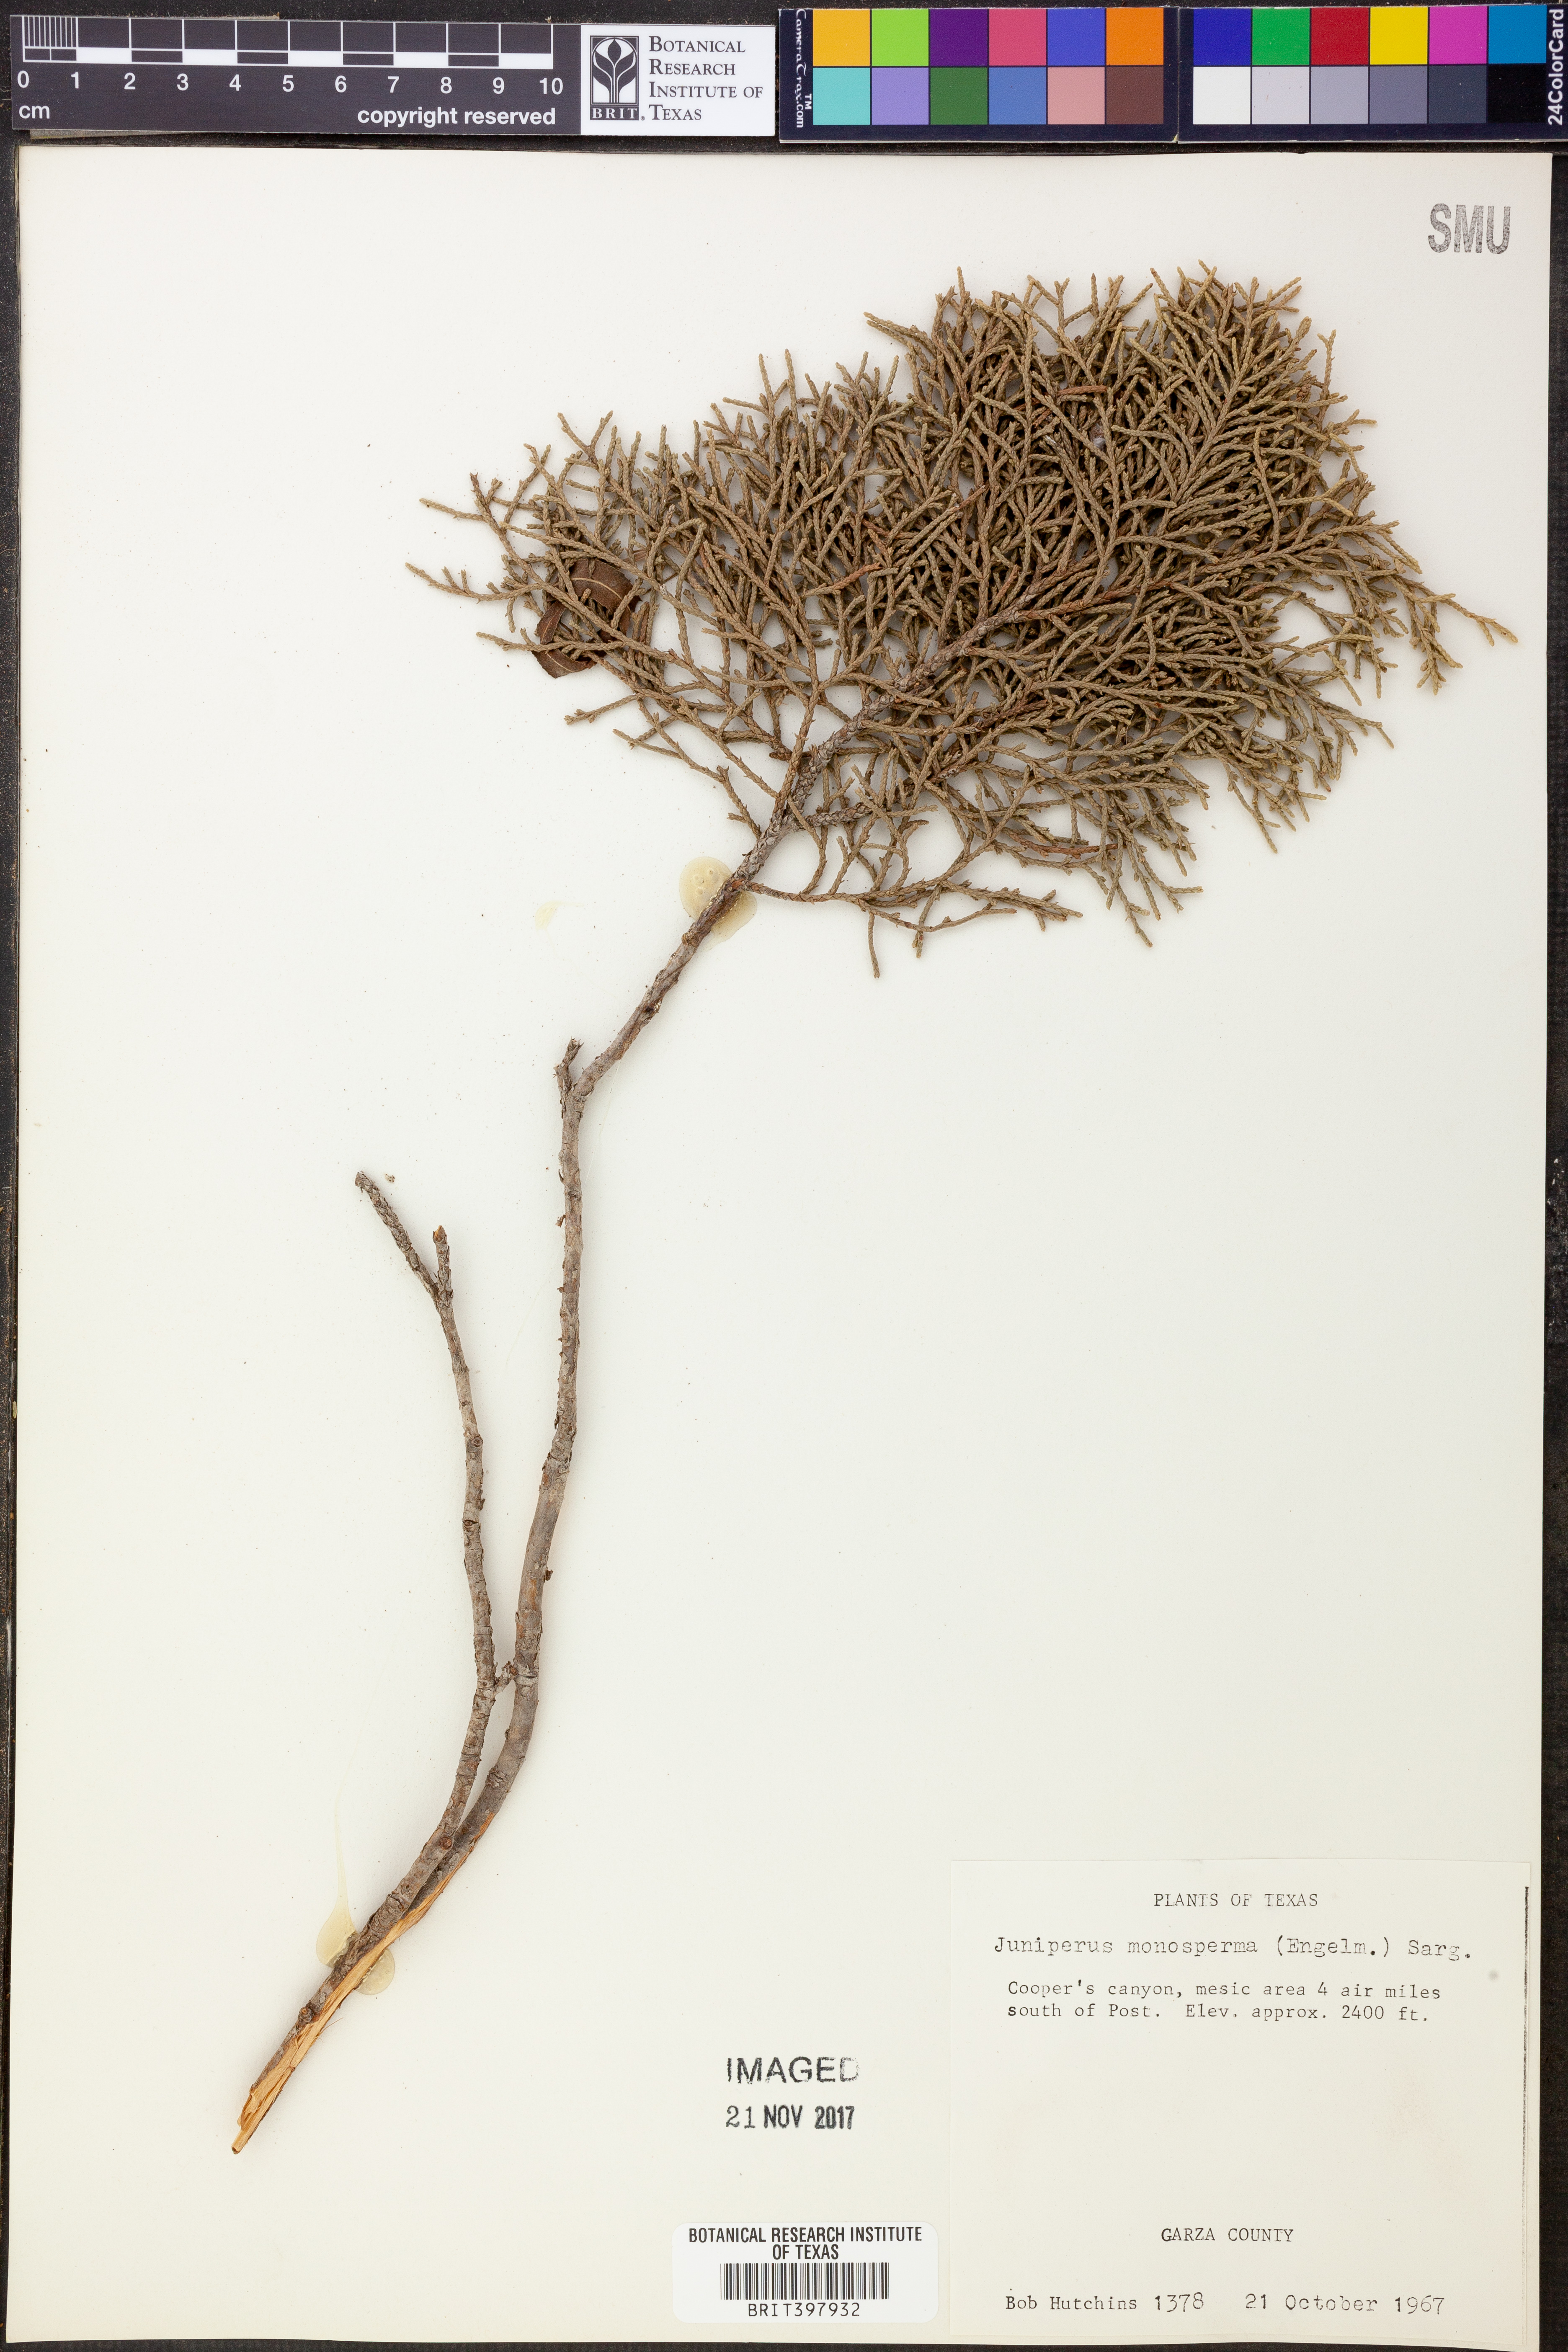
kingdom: Plantae
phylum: Tracheophyta
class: Pinopsida
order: Pinales
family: Cupressaceae
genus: Juniperus
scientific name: Juniperus monosperma
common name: One-seed juniper
